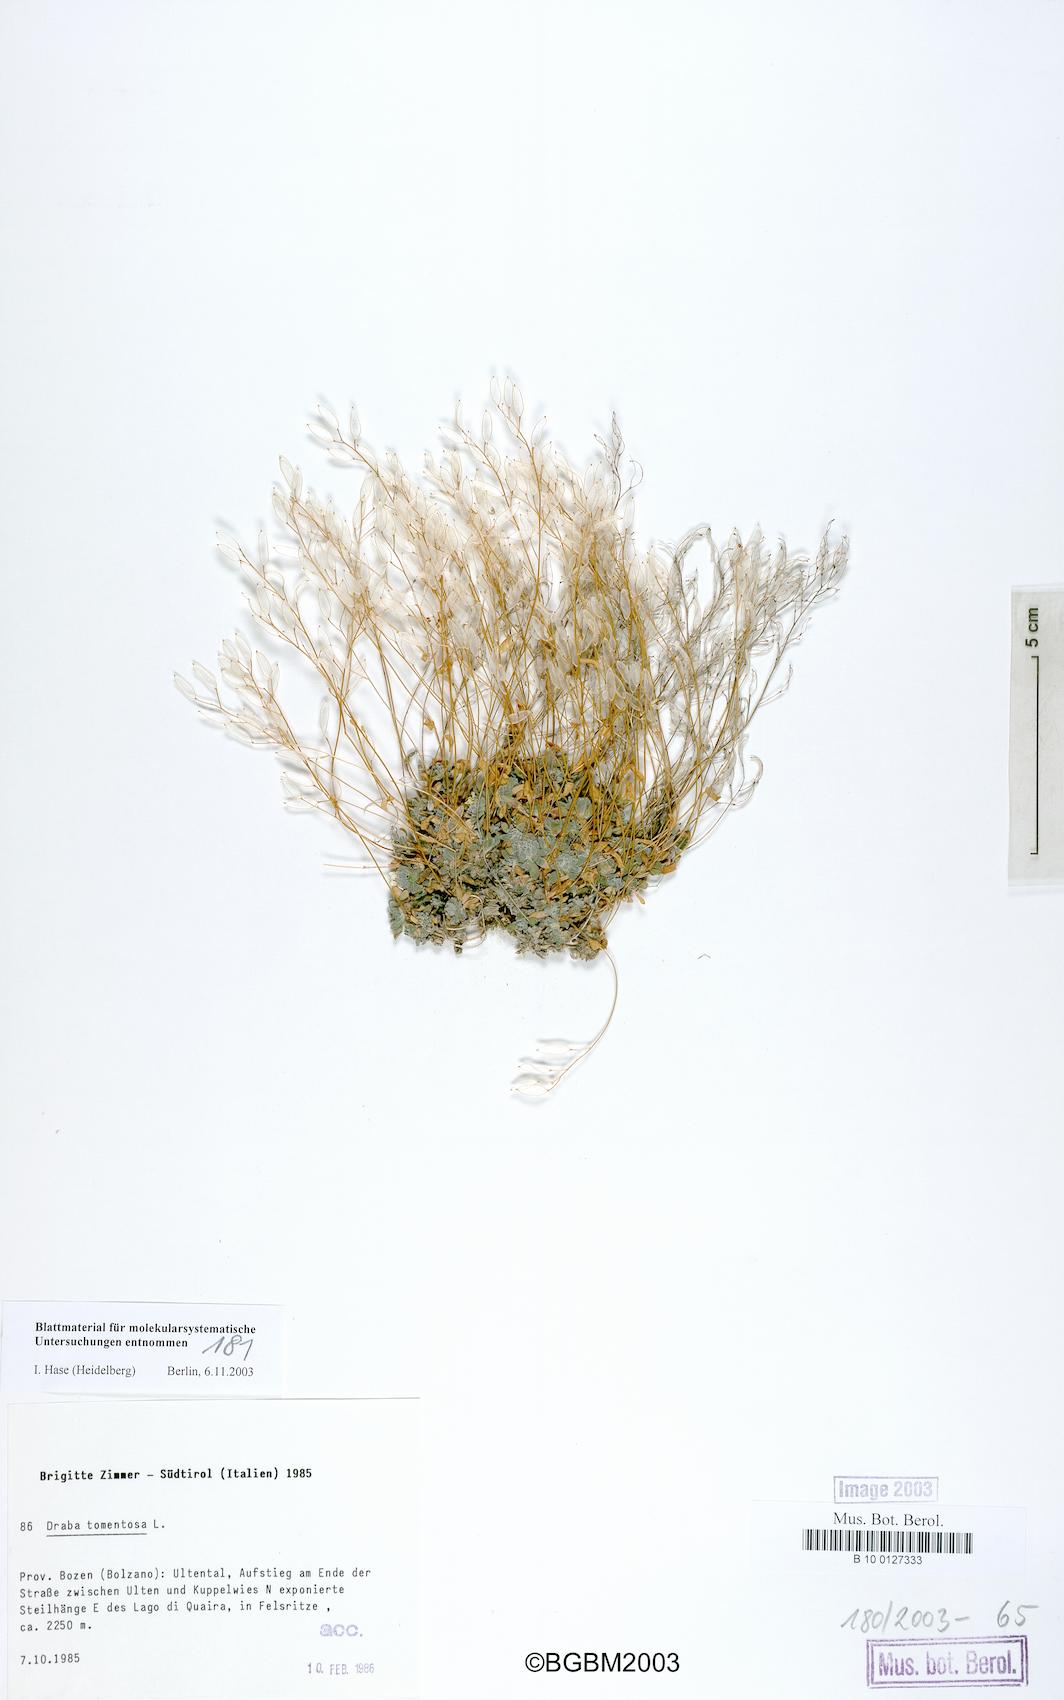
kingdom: Plantae
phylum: Tracheophyta
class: Magnoliopsida
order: Brassicales
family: Brassicaceae
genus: Draba
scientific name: Draba tomentosa
